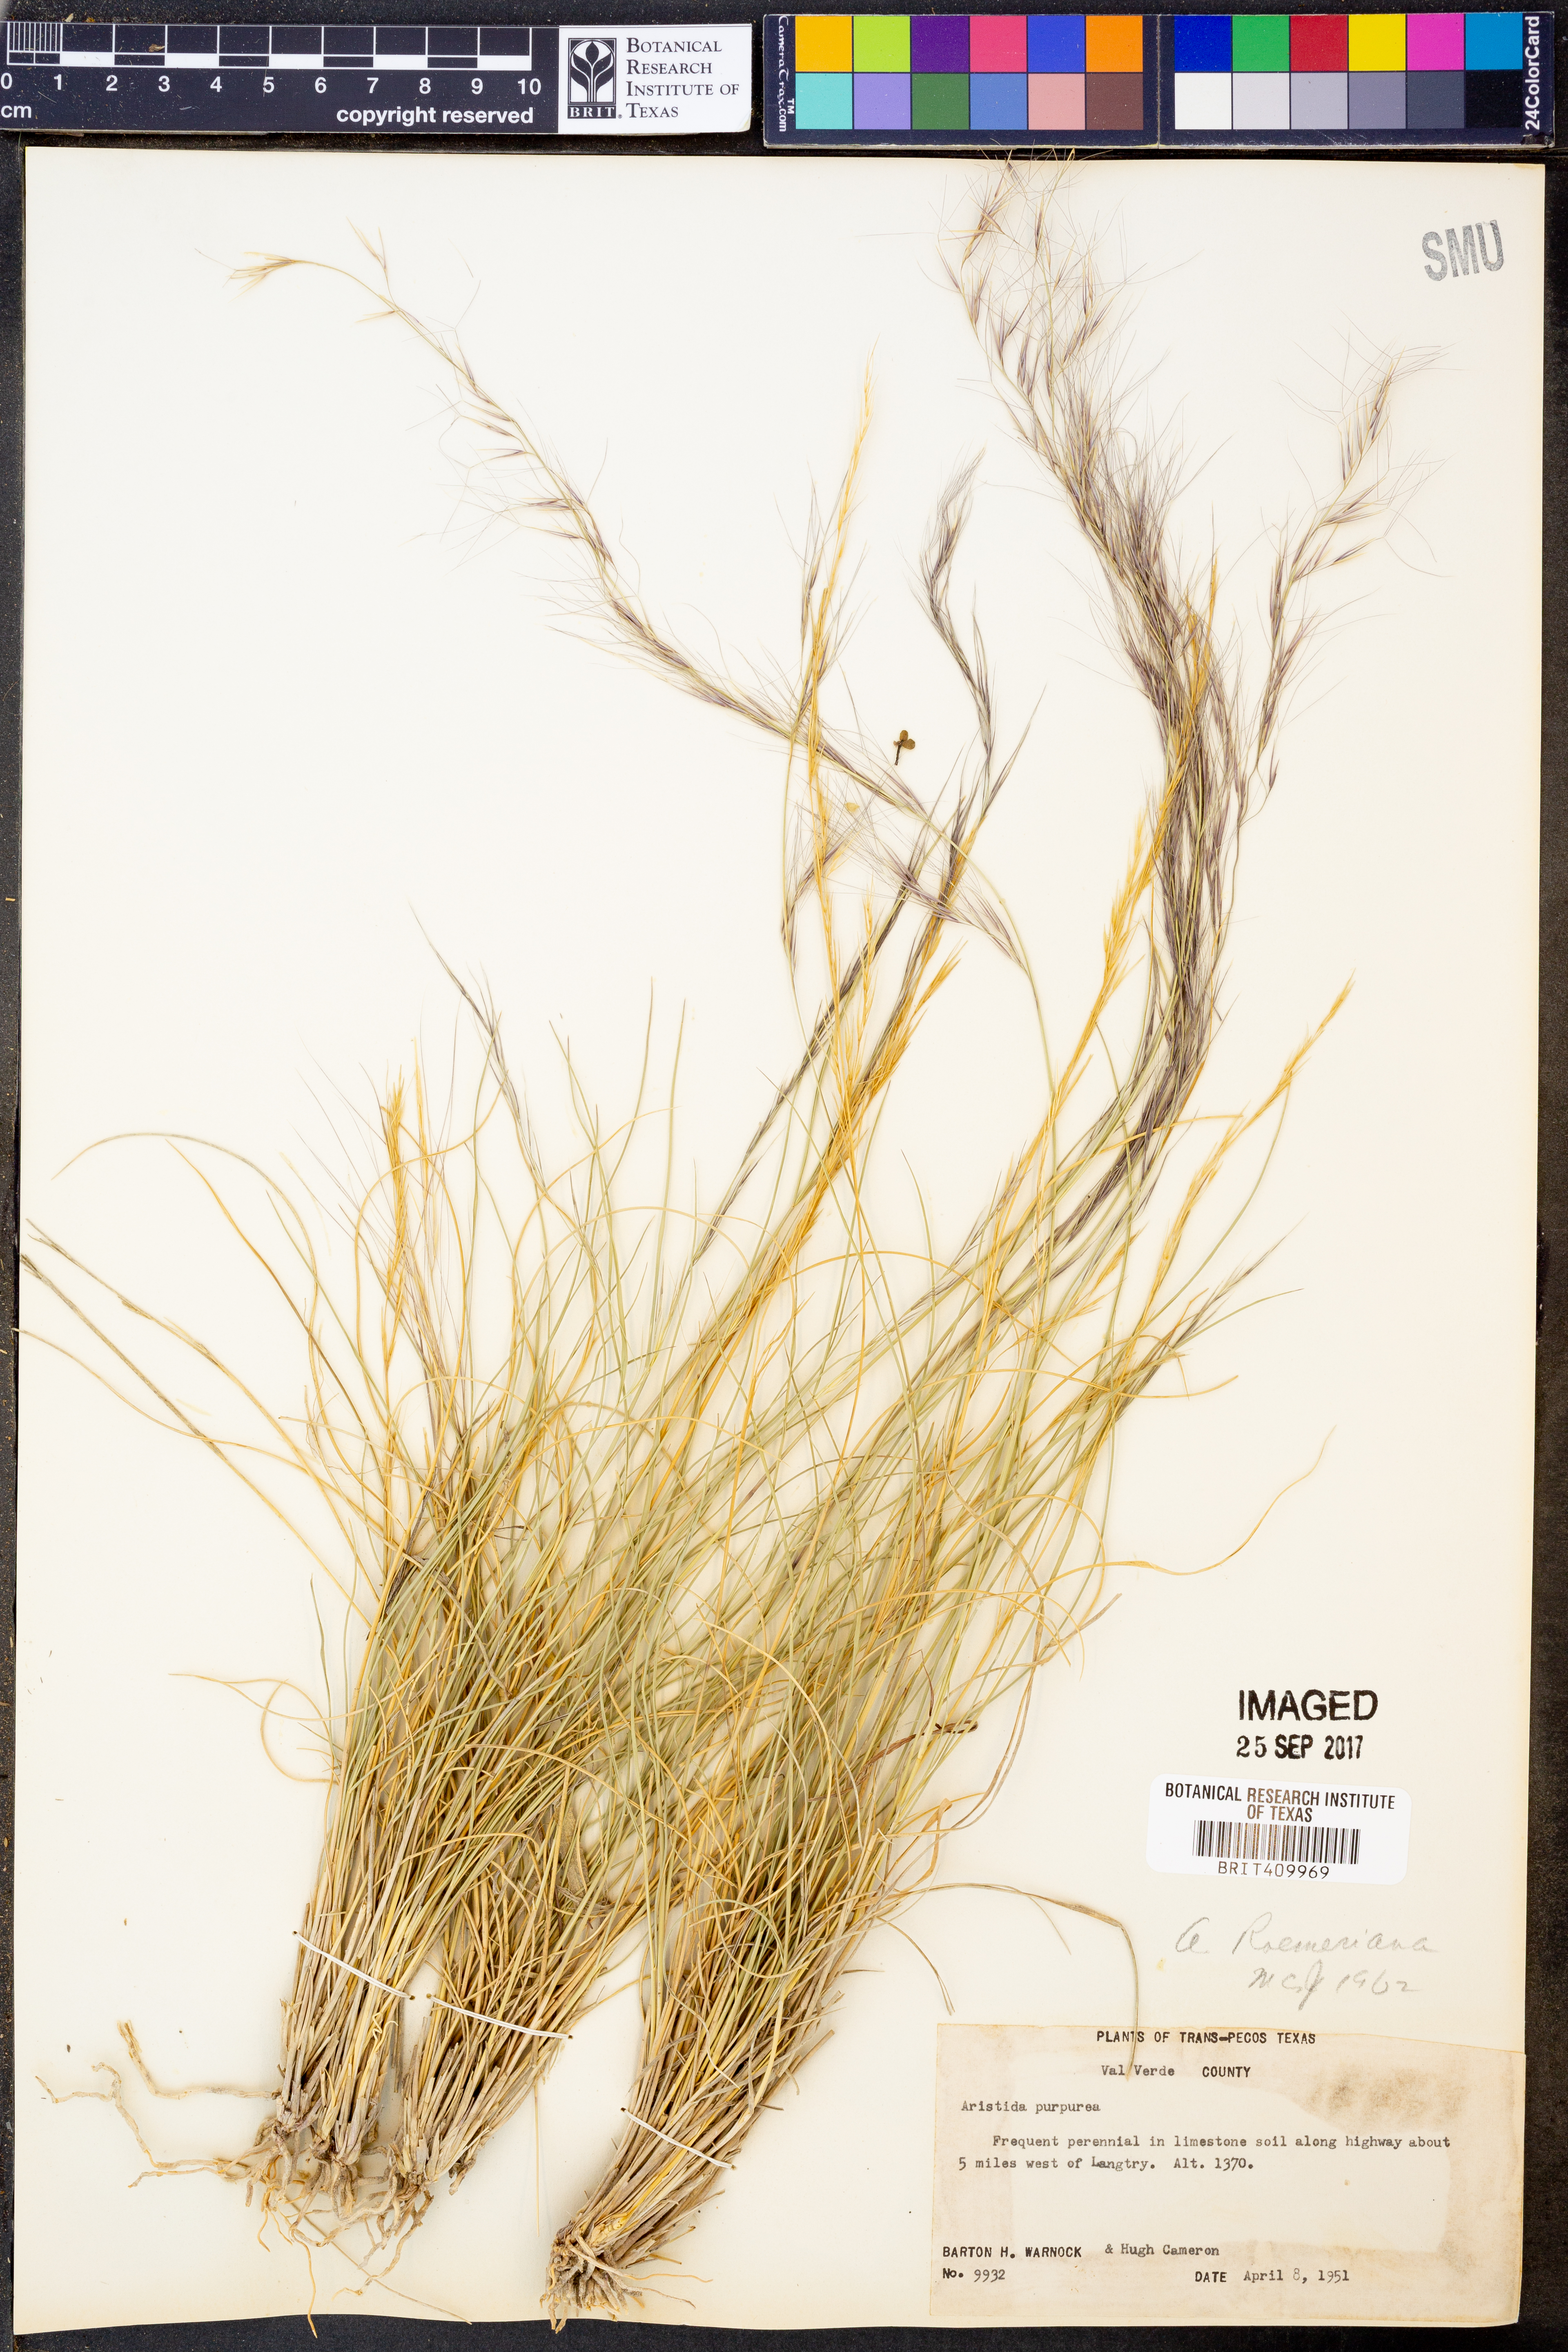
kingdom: Plantae
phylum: Tracheophyta
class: Liliopsida
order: Poales
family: Poaceae
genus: Aristida
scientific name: Aristida purpurea
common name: Purple threeawn
